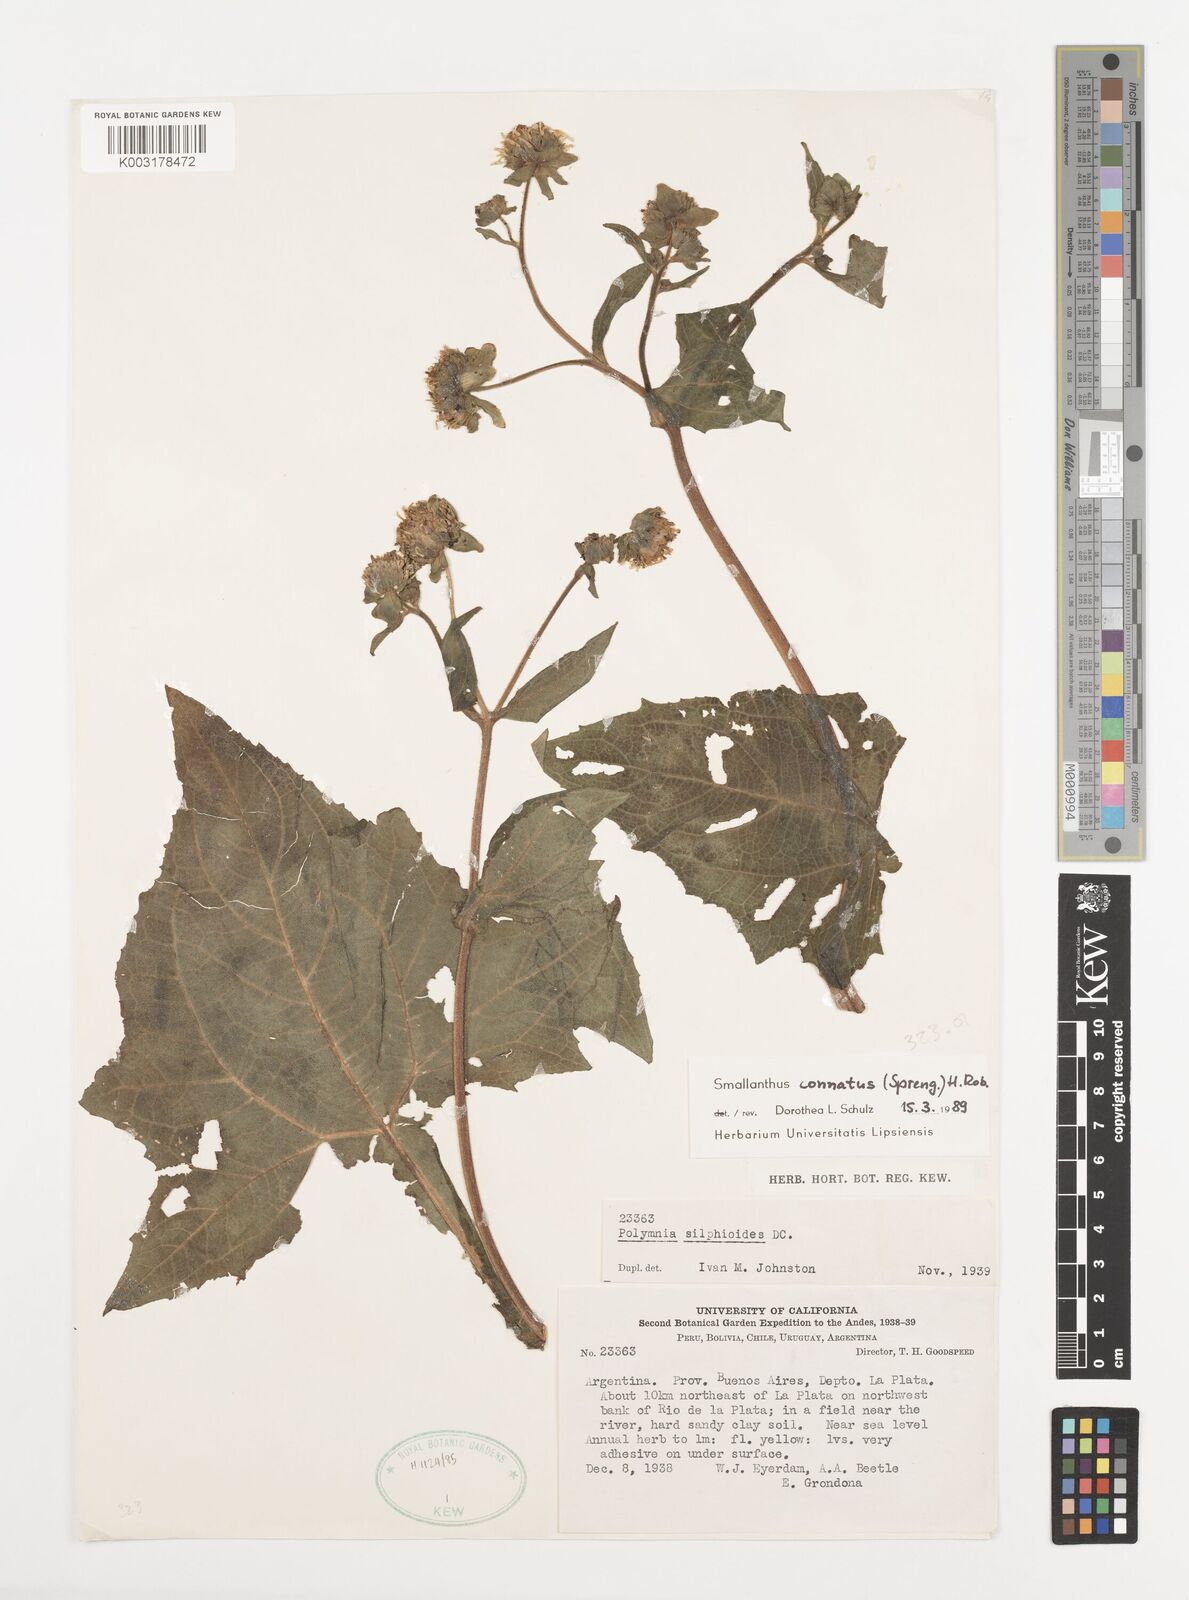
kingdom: Plantae
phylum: Tracheophyta
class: Magnoliopsida
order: Asterales
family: Asteraceae
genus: Smallanthus
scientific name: Smallanthus connatus
